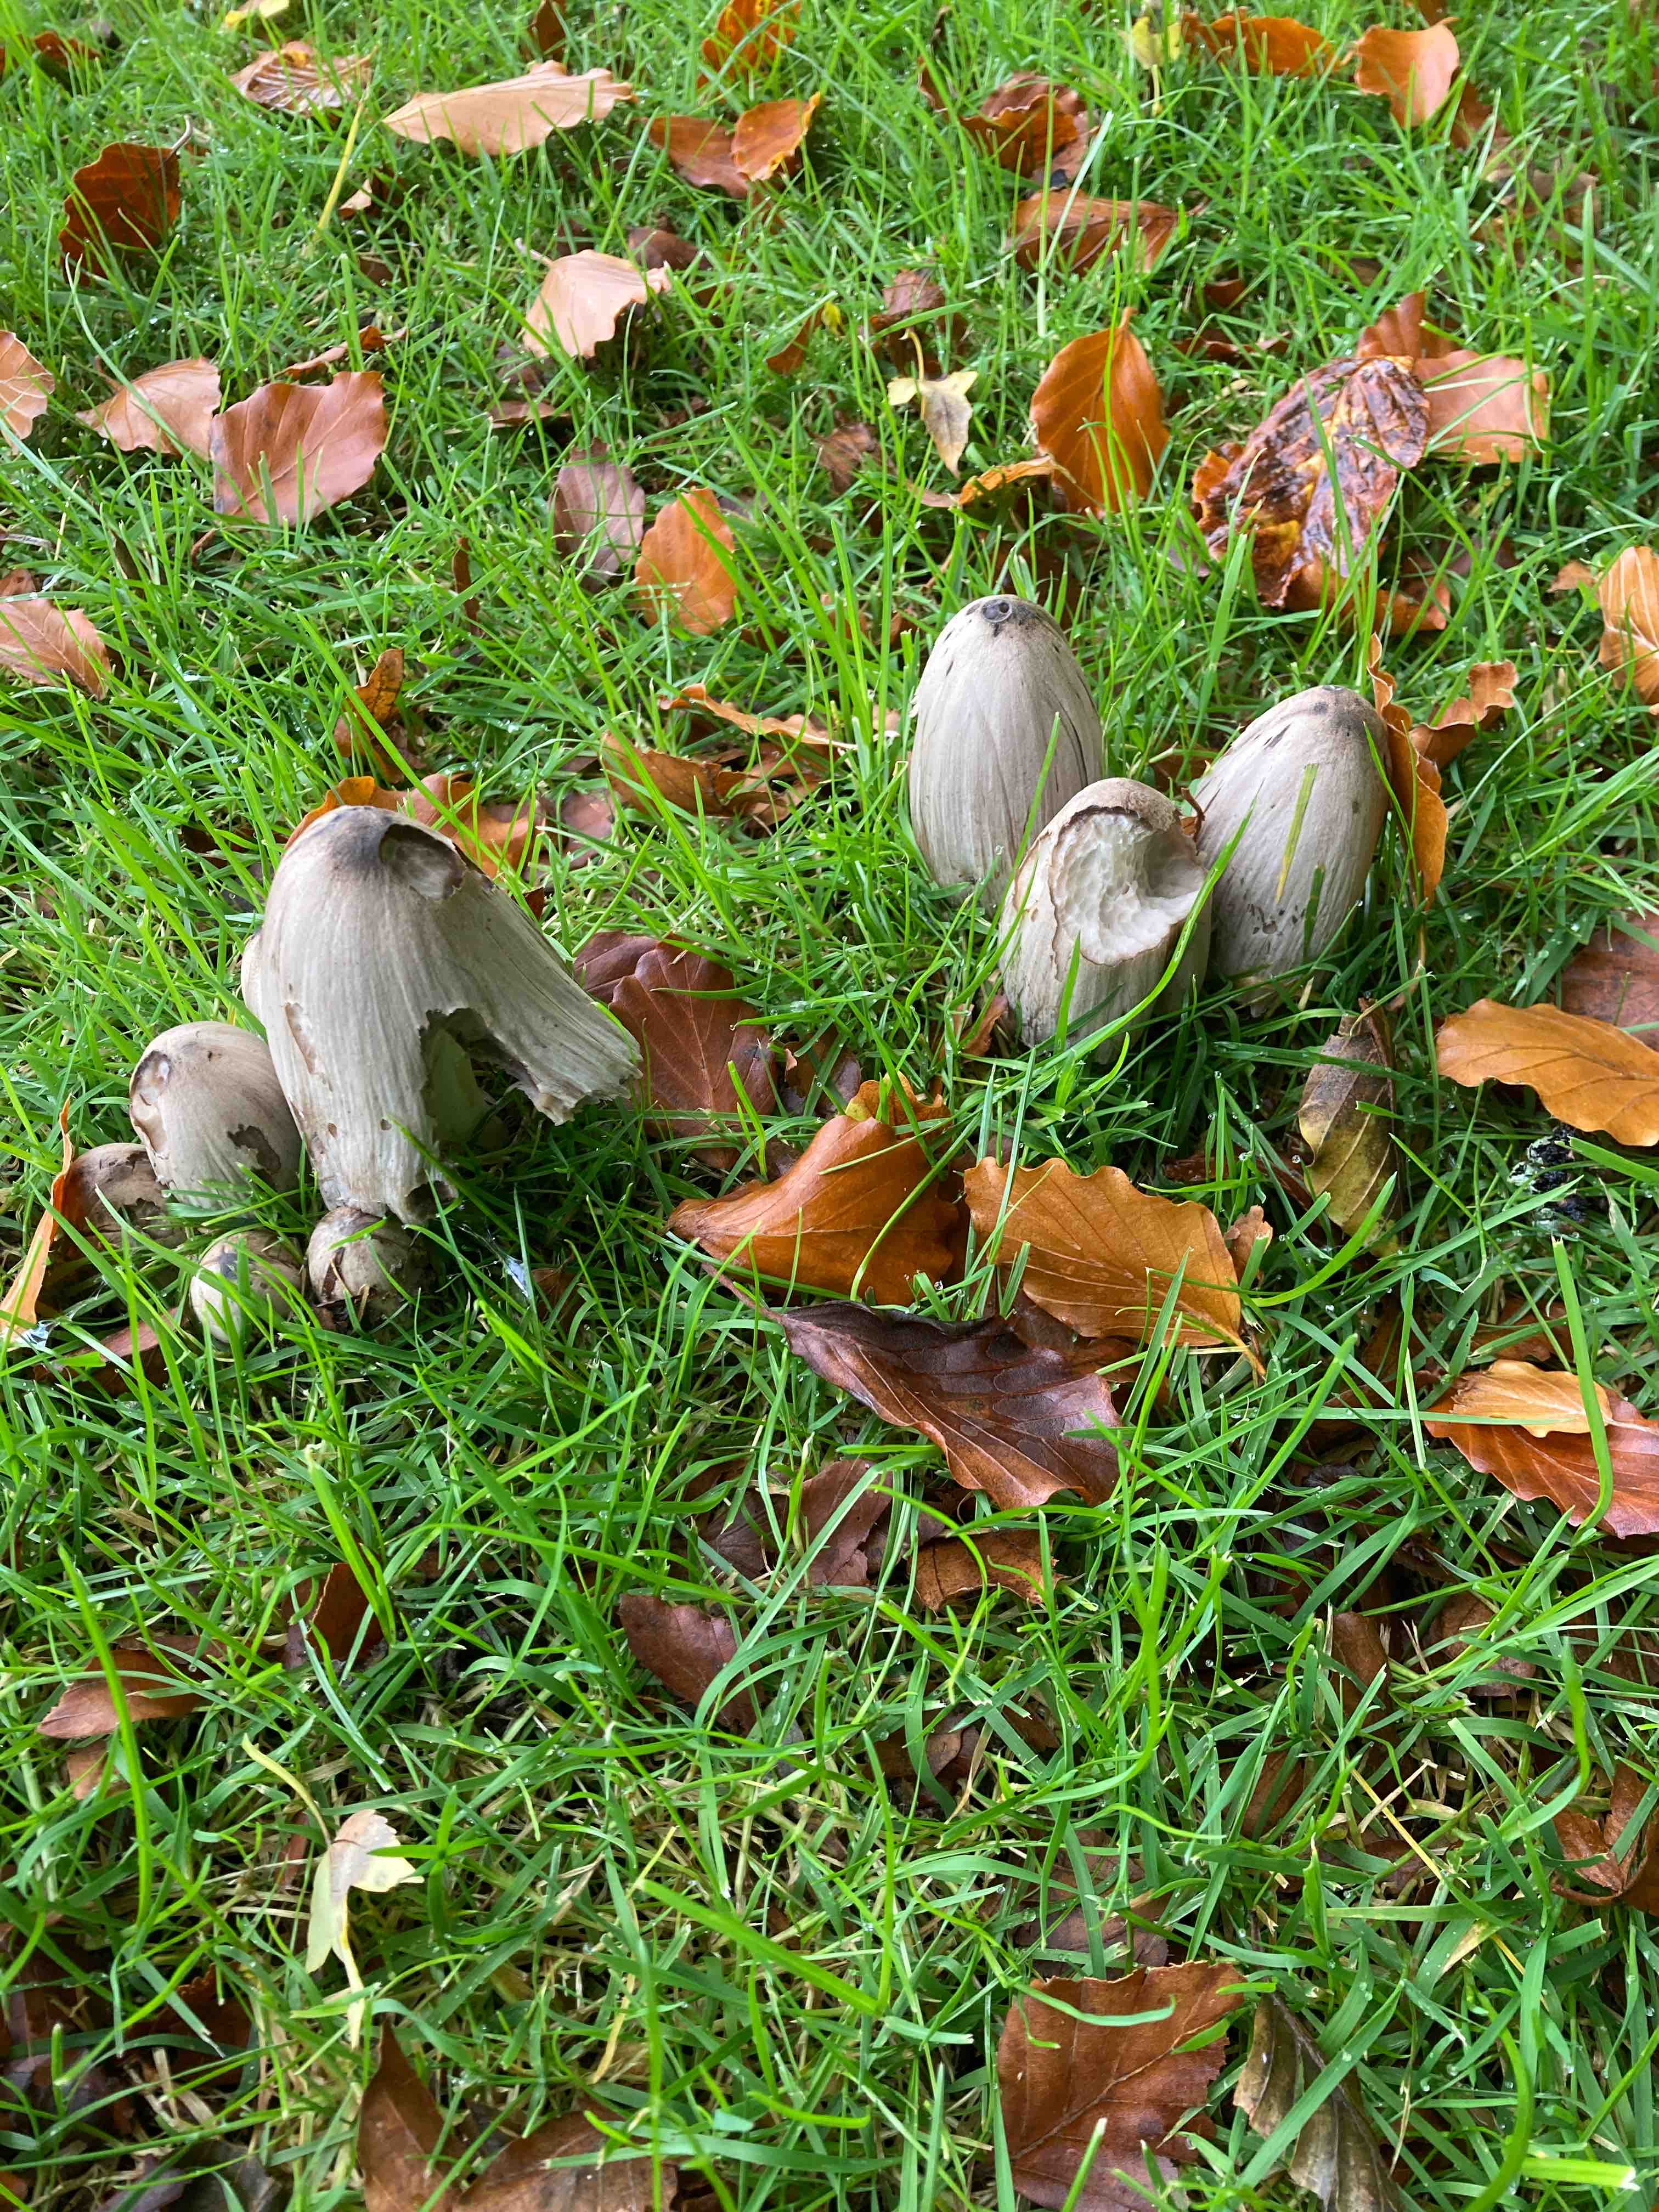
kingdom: Fungi
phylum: Basidiomycota
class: Agaricomycetes
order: Agaricales
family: Psathyrellaceae
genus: Coprinopsis
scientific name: Coprinopsis atramentaria
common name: almindelig blækhat
